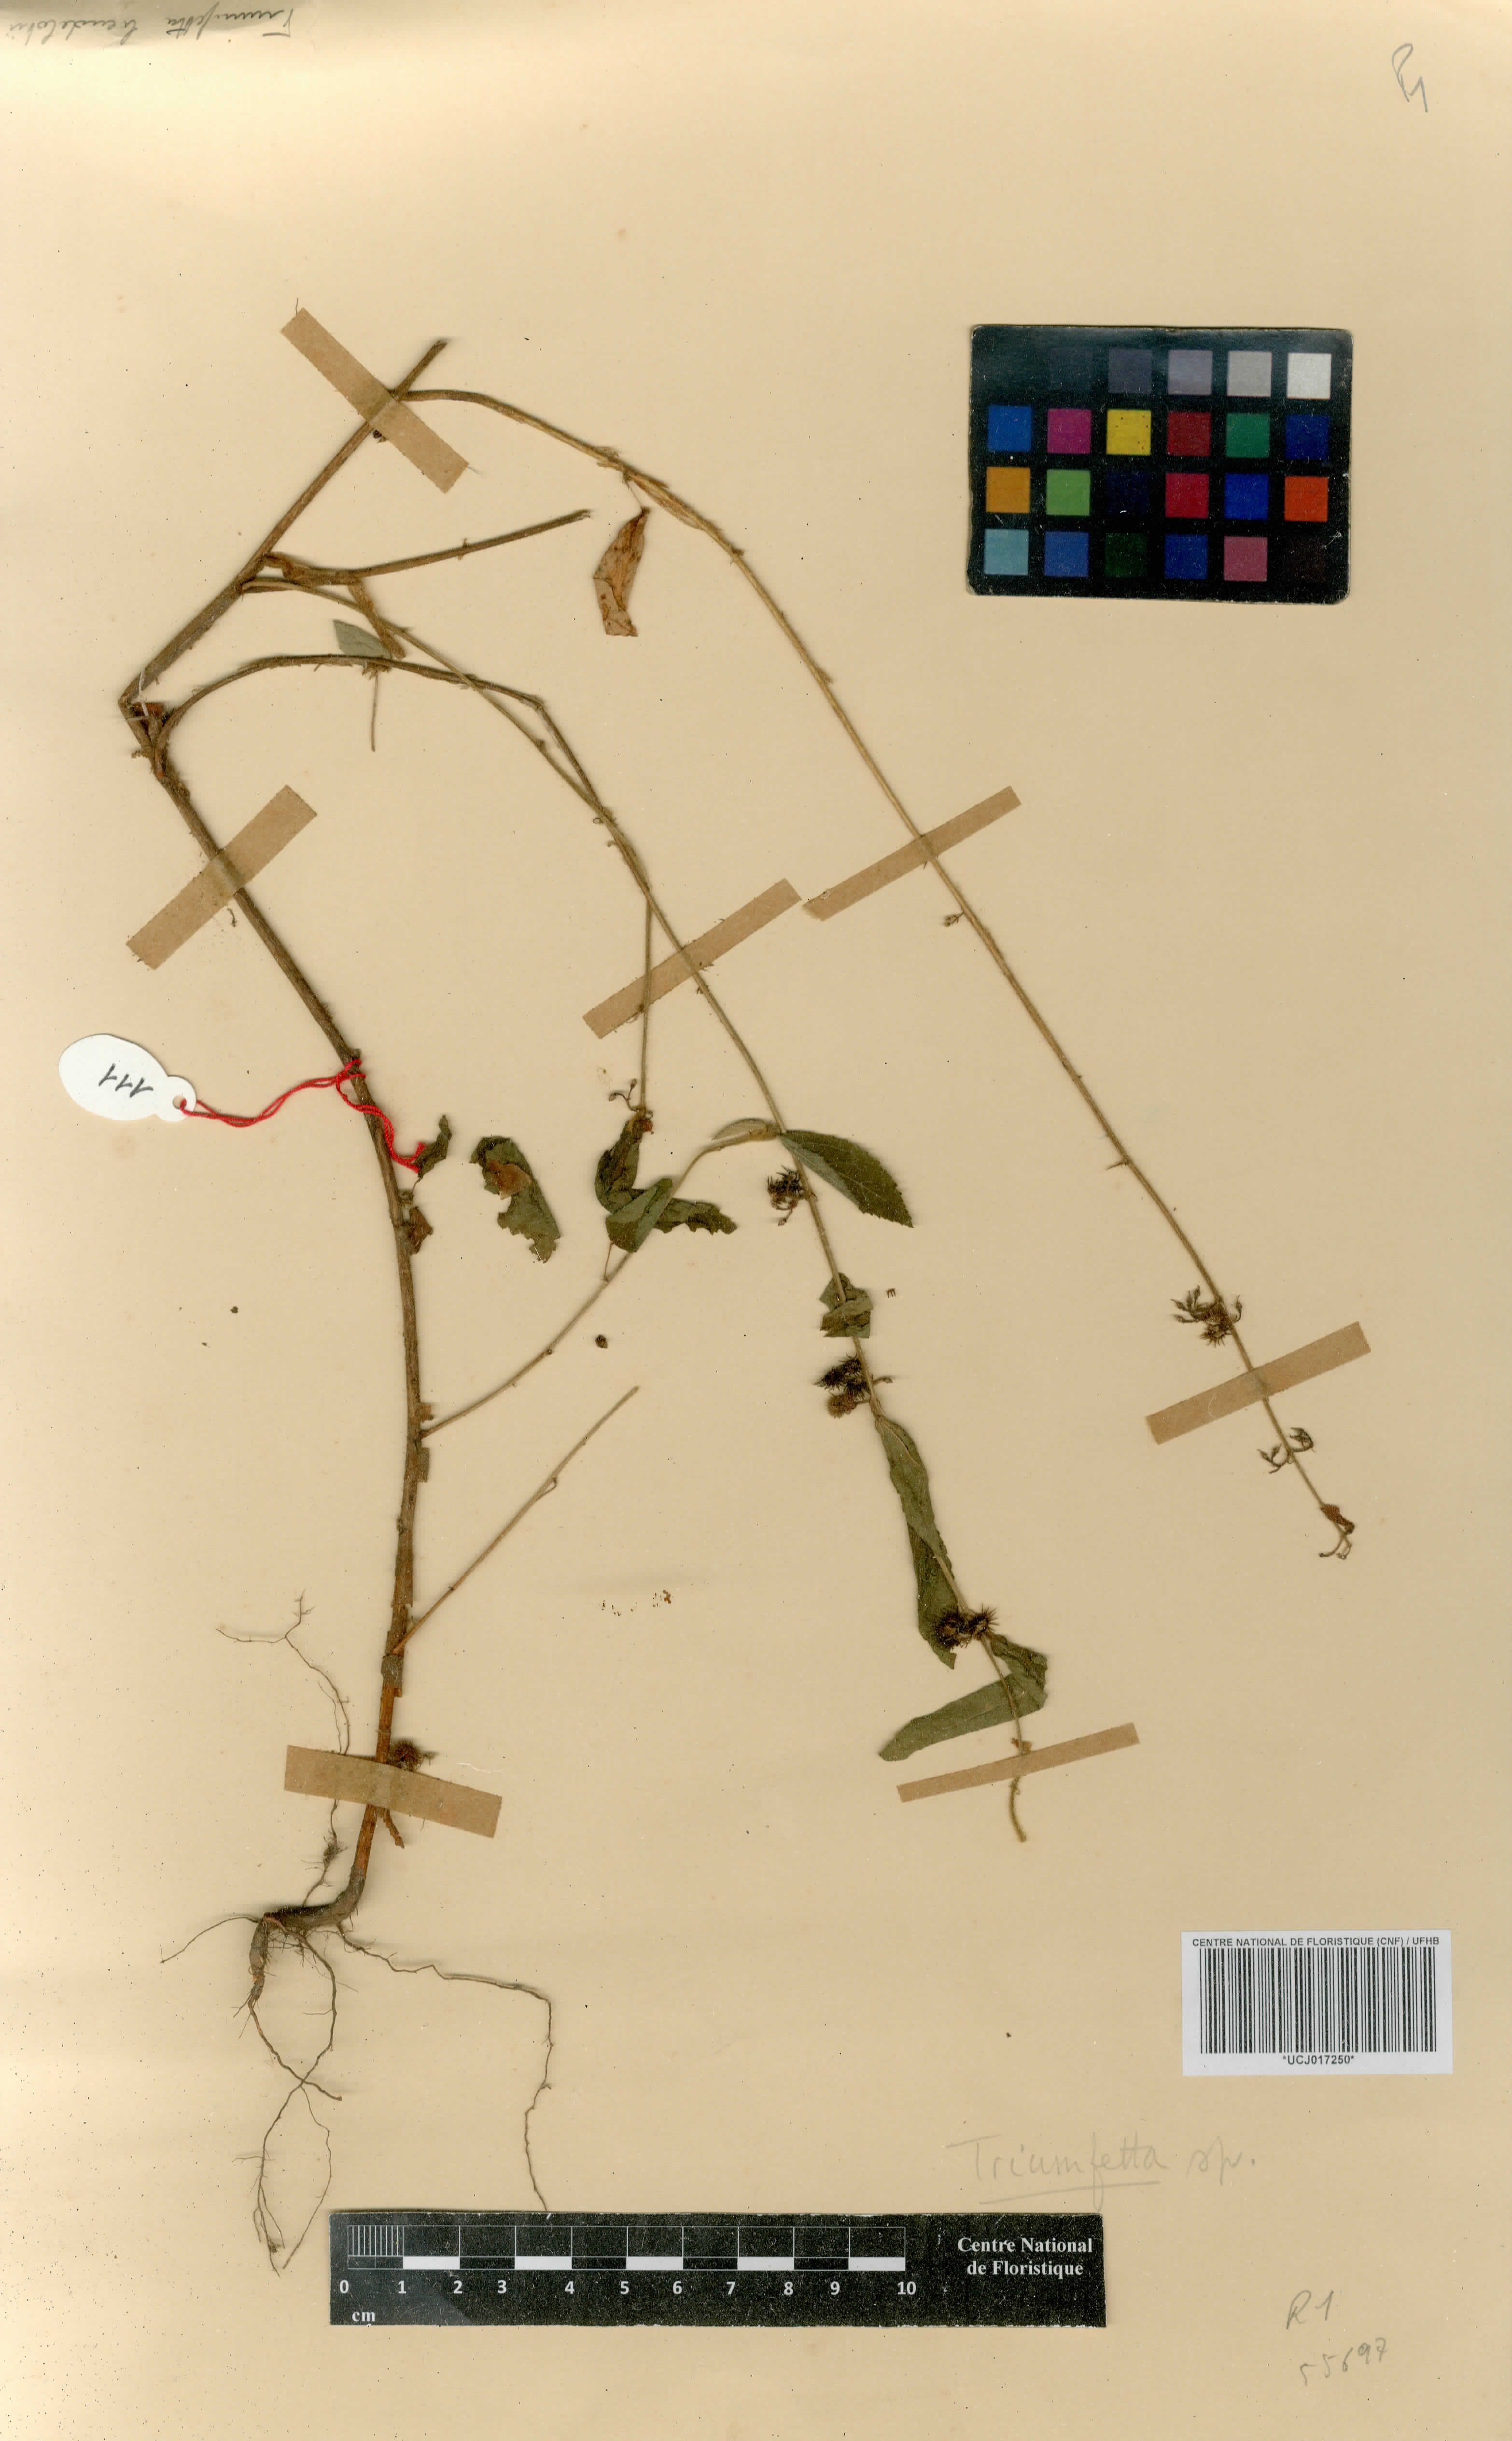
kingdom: Plantae
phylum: Tracheophyta
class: Magnoliopsida
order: Malvales
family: Malvaceae
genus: Triumfetta
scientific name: Triumfetta
